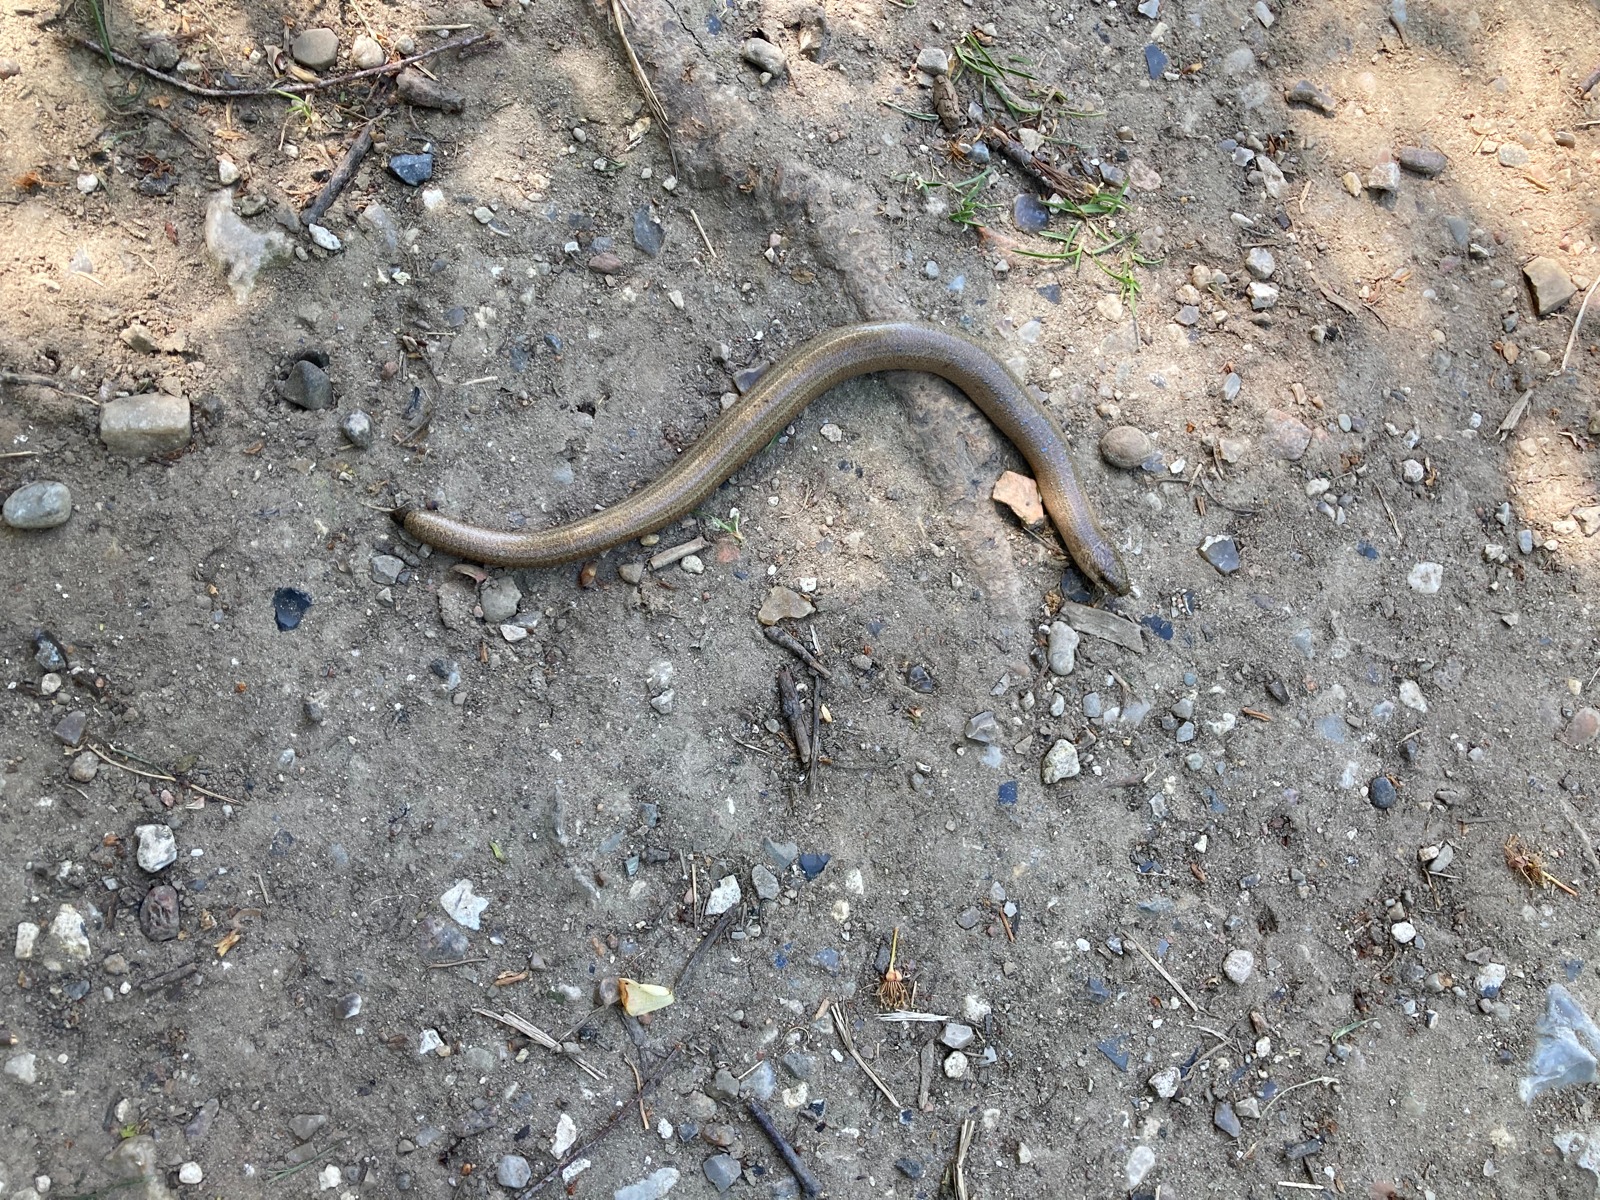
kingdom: Animalia
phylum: Chordata
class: Squamata
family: Anguidae
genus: Anguis
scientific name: Anguis fragilis
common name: Stålorm
